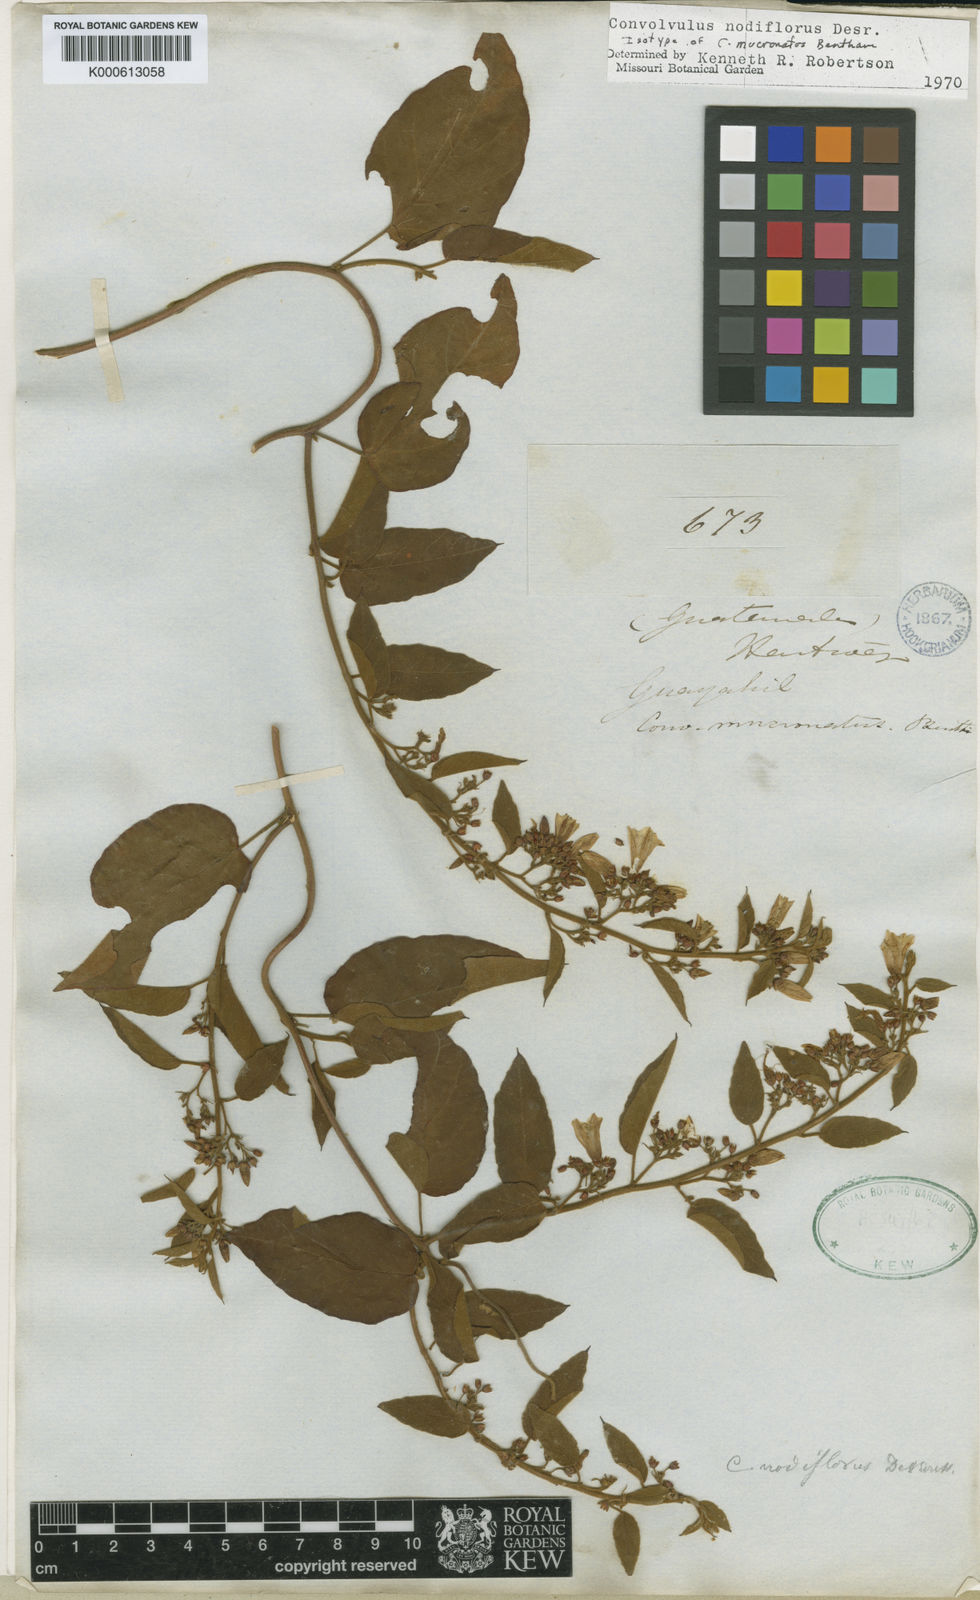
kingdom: Plantae
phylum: Tracheophyta
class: Magnoliopsida
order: Solanales
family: Convolvulaceae
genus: Jacquemontia
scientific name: Jacquemontia nodiflora
